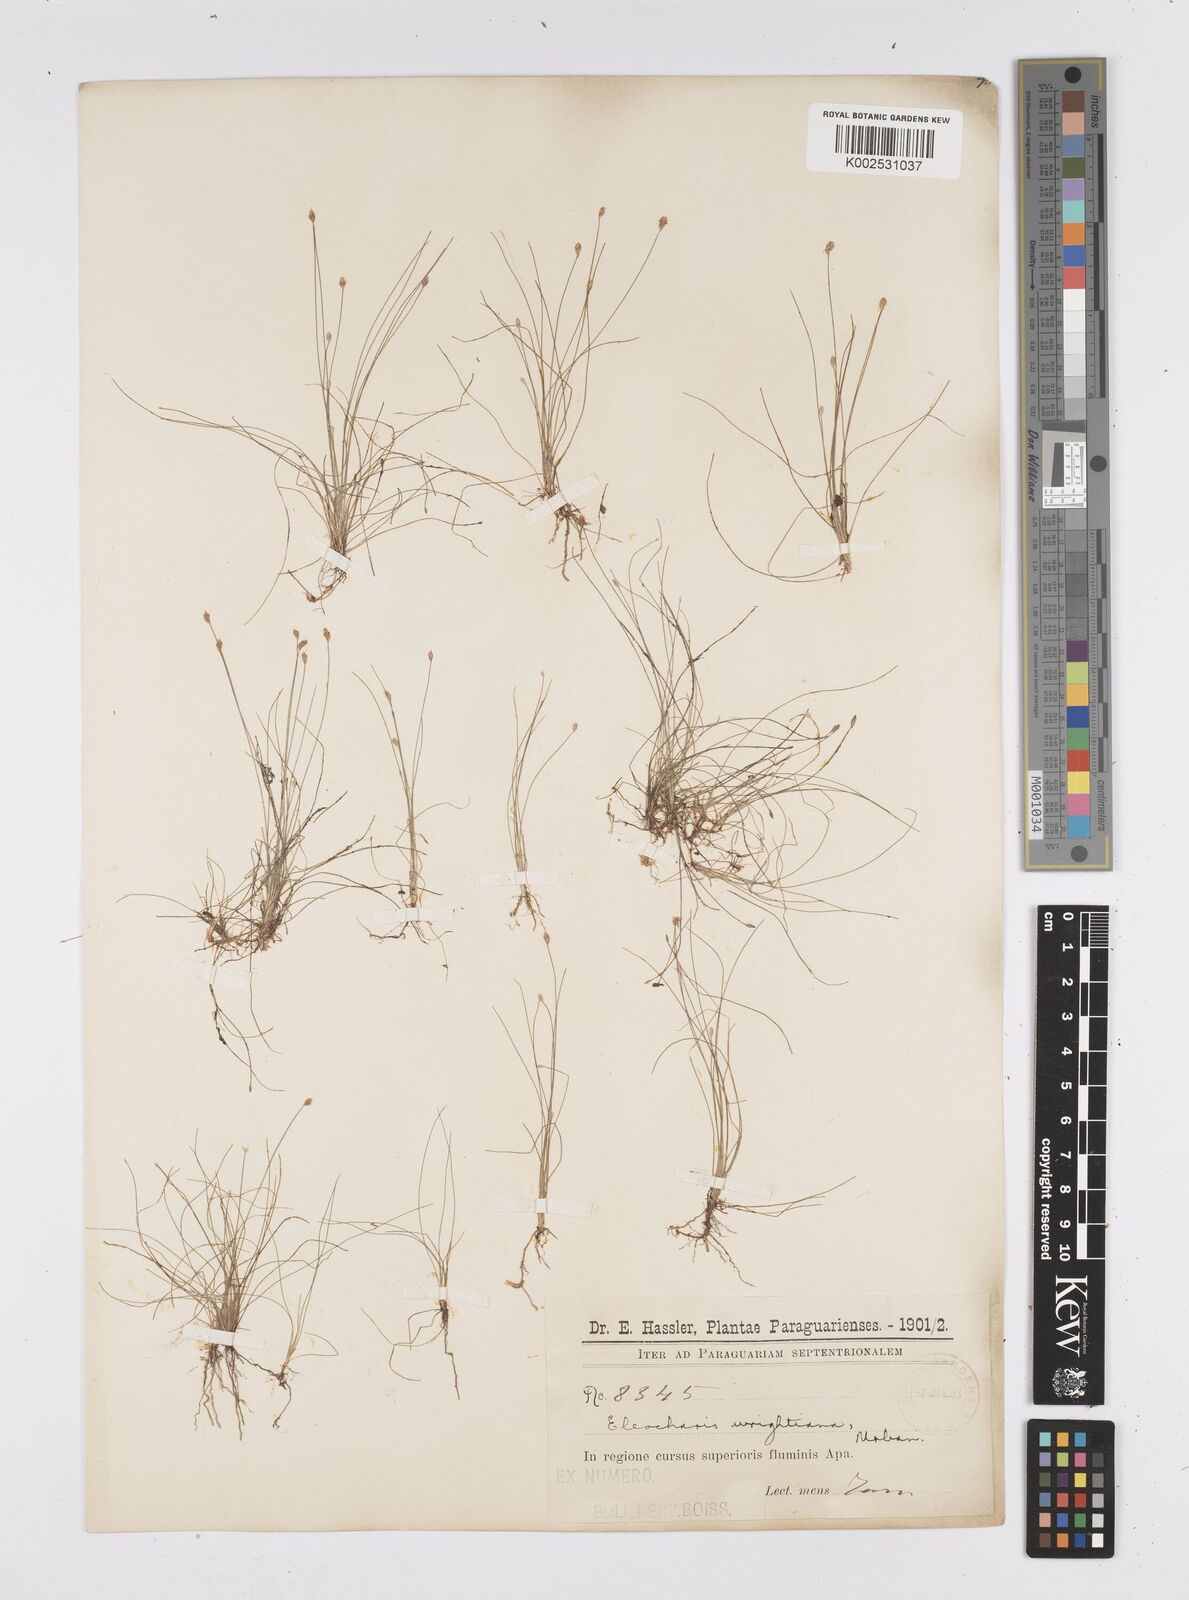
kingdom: Plantae
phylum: Tracheophyta
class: Liliopsida
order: Poales
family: Cyperaceae
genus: Eleocharis
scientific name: Eleocharis subfoliata
